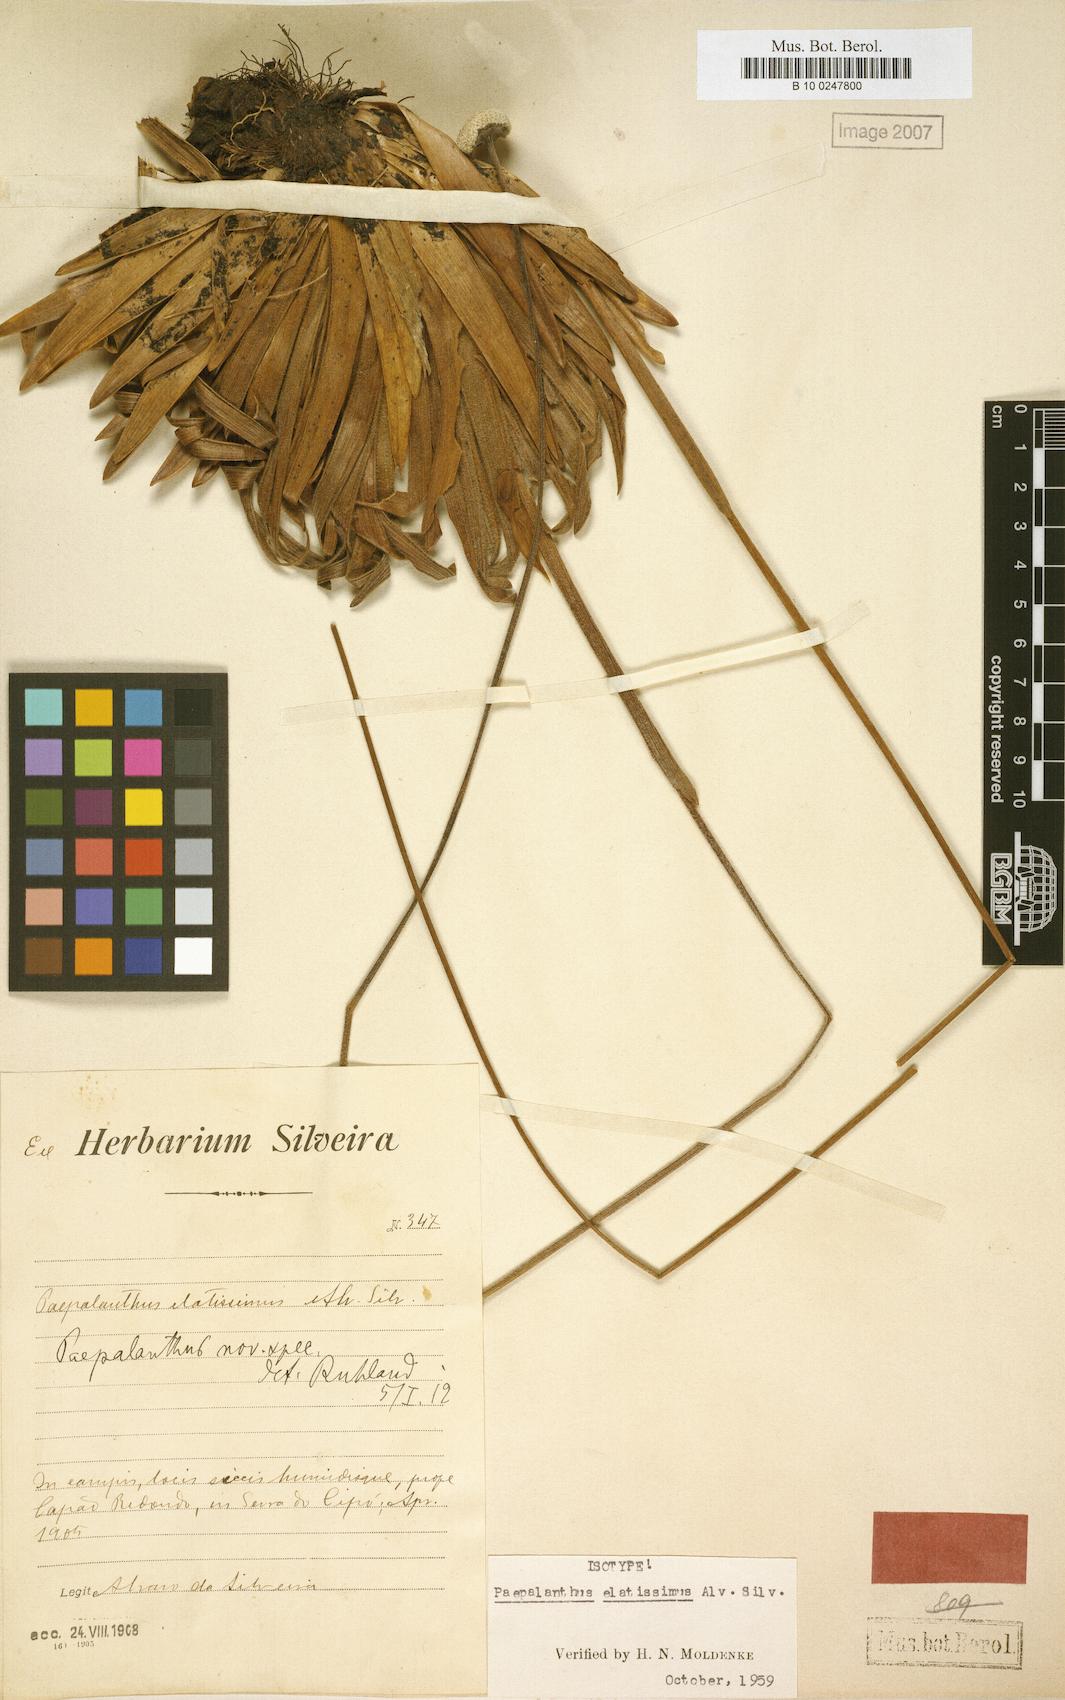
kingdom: Plantae
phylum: Tracheophyta
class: Liliopsida
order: Poales
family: Eriocaulaceae
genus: Paepalanthus
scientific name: Paepalanthus elatissimus
